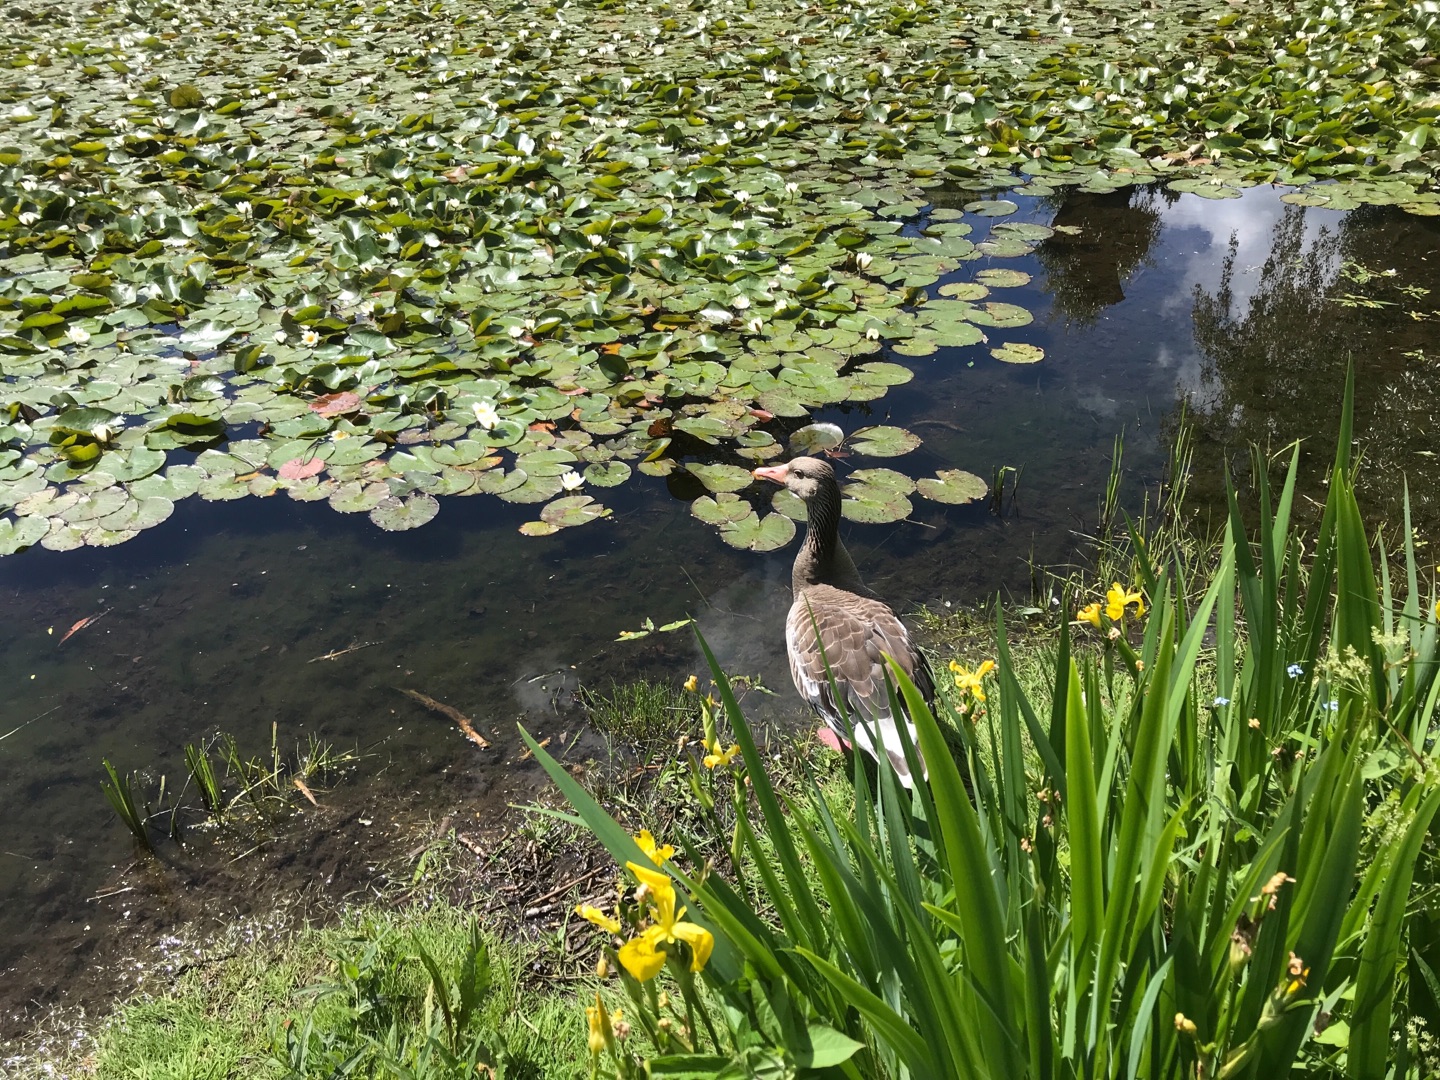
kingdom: Plantae
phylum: Tracheophyta
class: Magnoliopsida
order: Nymphaeales
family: Nymphaeaceae
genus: Nymphaea
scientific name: Nymphaea alba
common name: Hvid åkande
